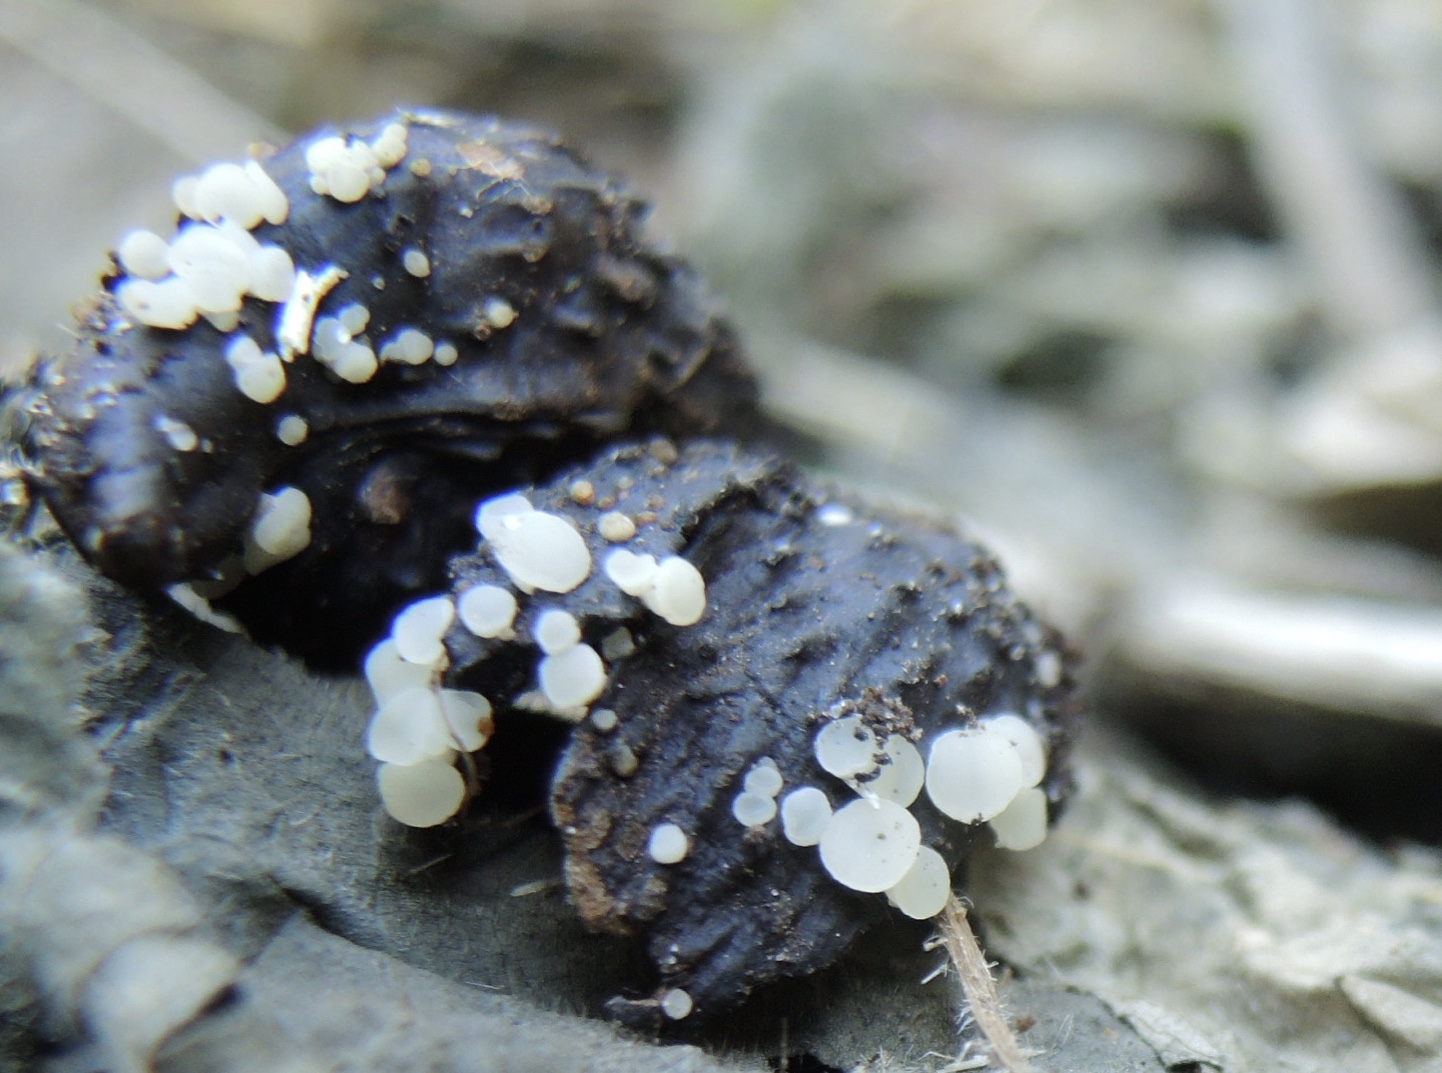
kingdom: Fungi
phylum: Ascomycota
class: Leotiomycetes
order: Helotiales
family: Helotiaceae
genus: Hymenoscyphus
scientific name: Hymenoscyphus fagineus
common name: vellugtende stilkskive
